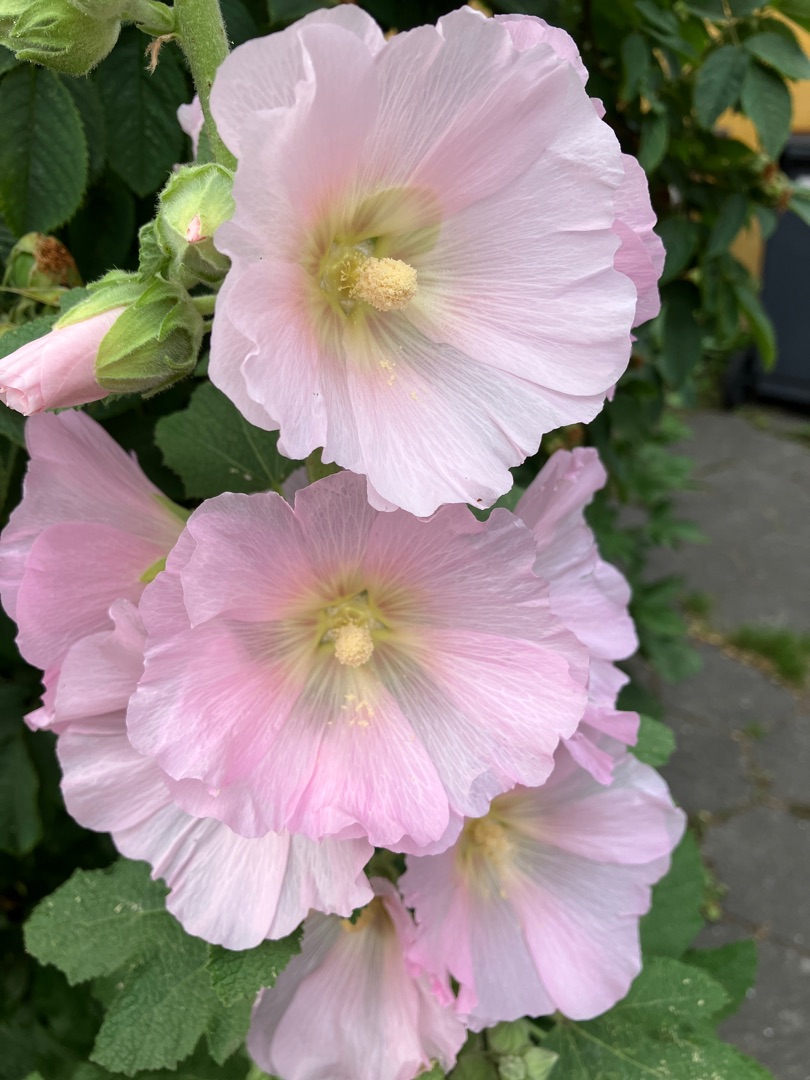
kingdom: Plantae
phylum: Tracheophyta
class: Magnoliopsida
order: Malvales
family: Malvaceae
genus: Alcea
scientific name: Alcea rosea
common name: Have-stokrose
